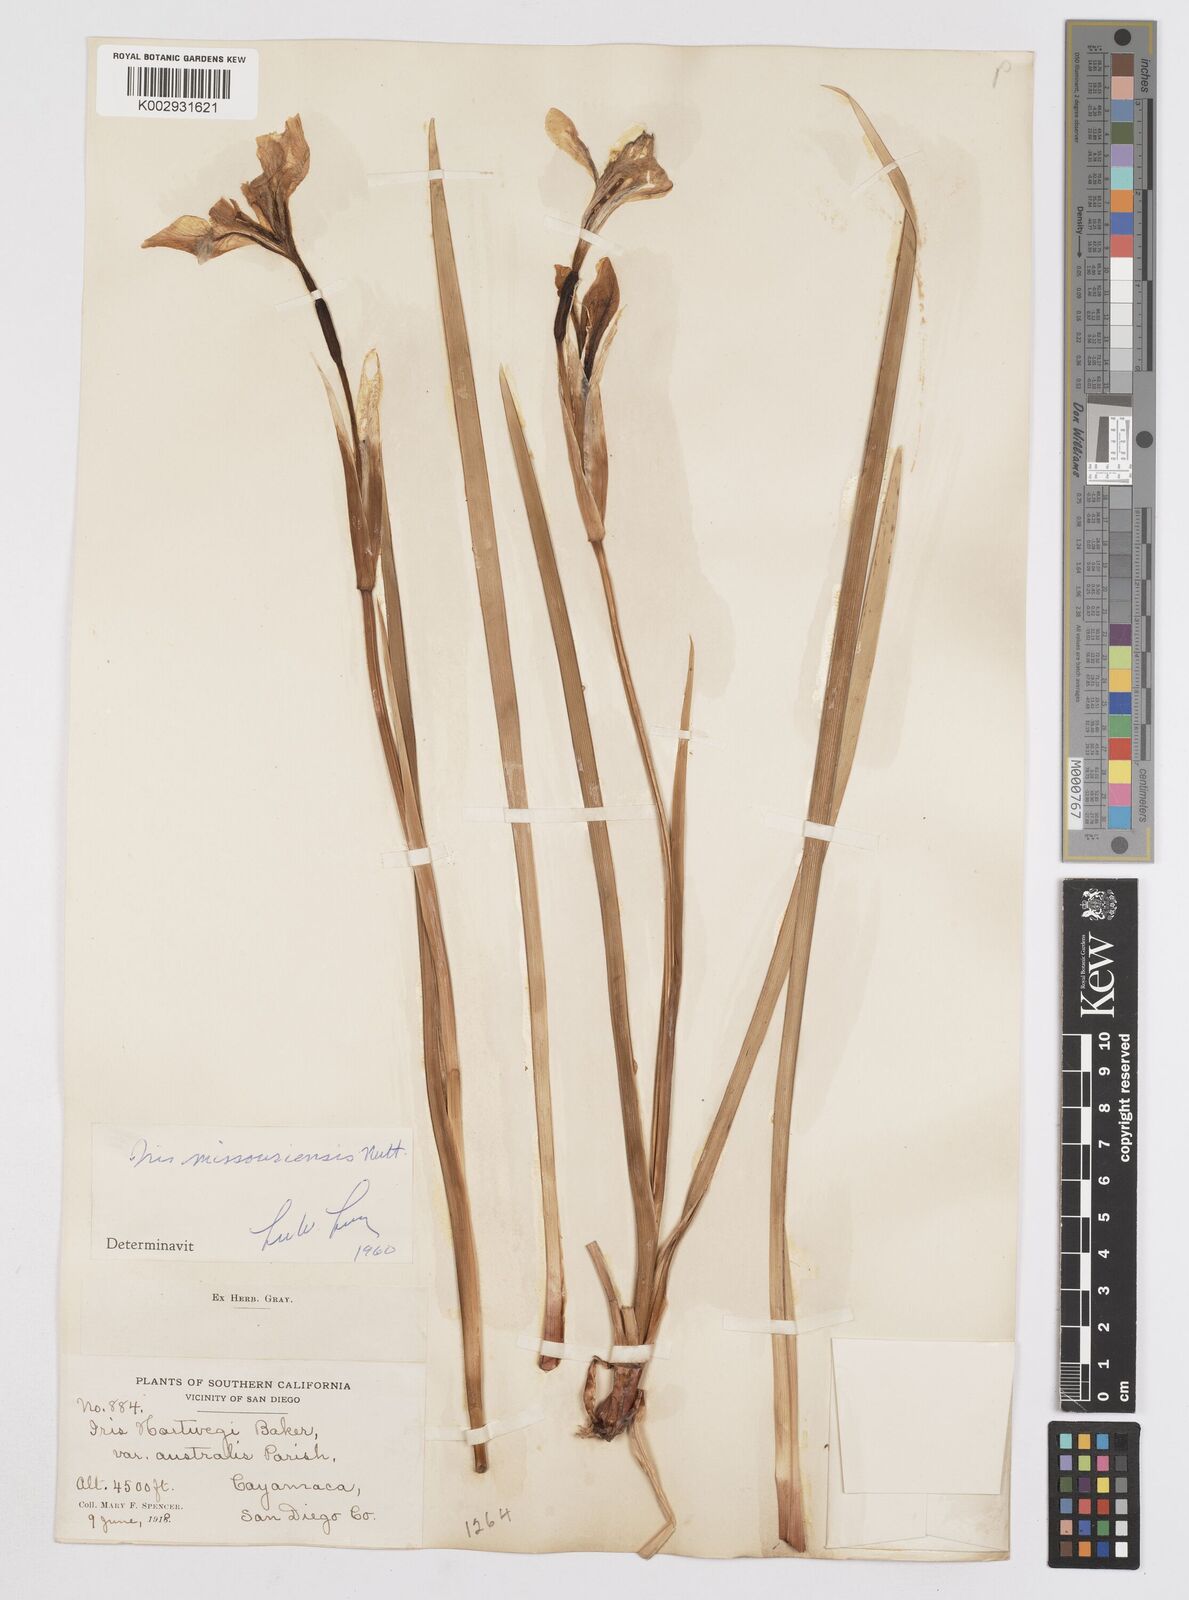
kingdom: Plantae
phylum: Tracheophyta
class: Liliopsida
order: Asparagales
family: Iridaceae
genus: Iris
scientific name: Iris missouriensis
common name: Rocky mountain iris
